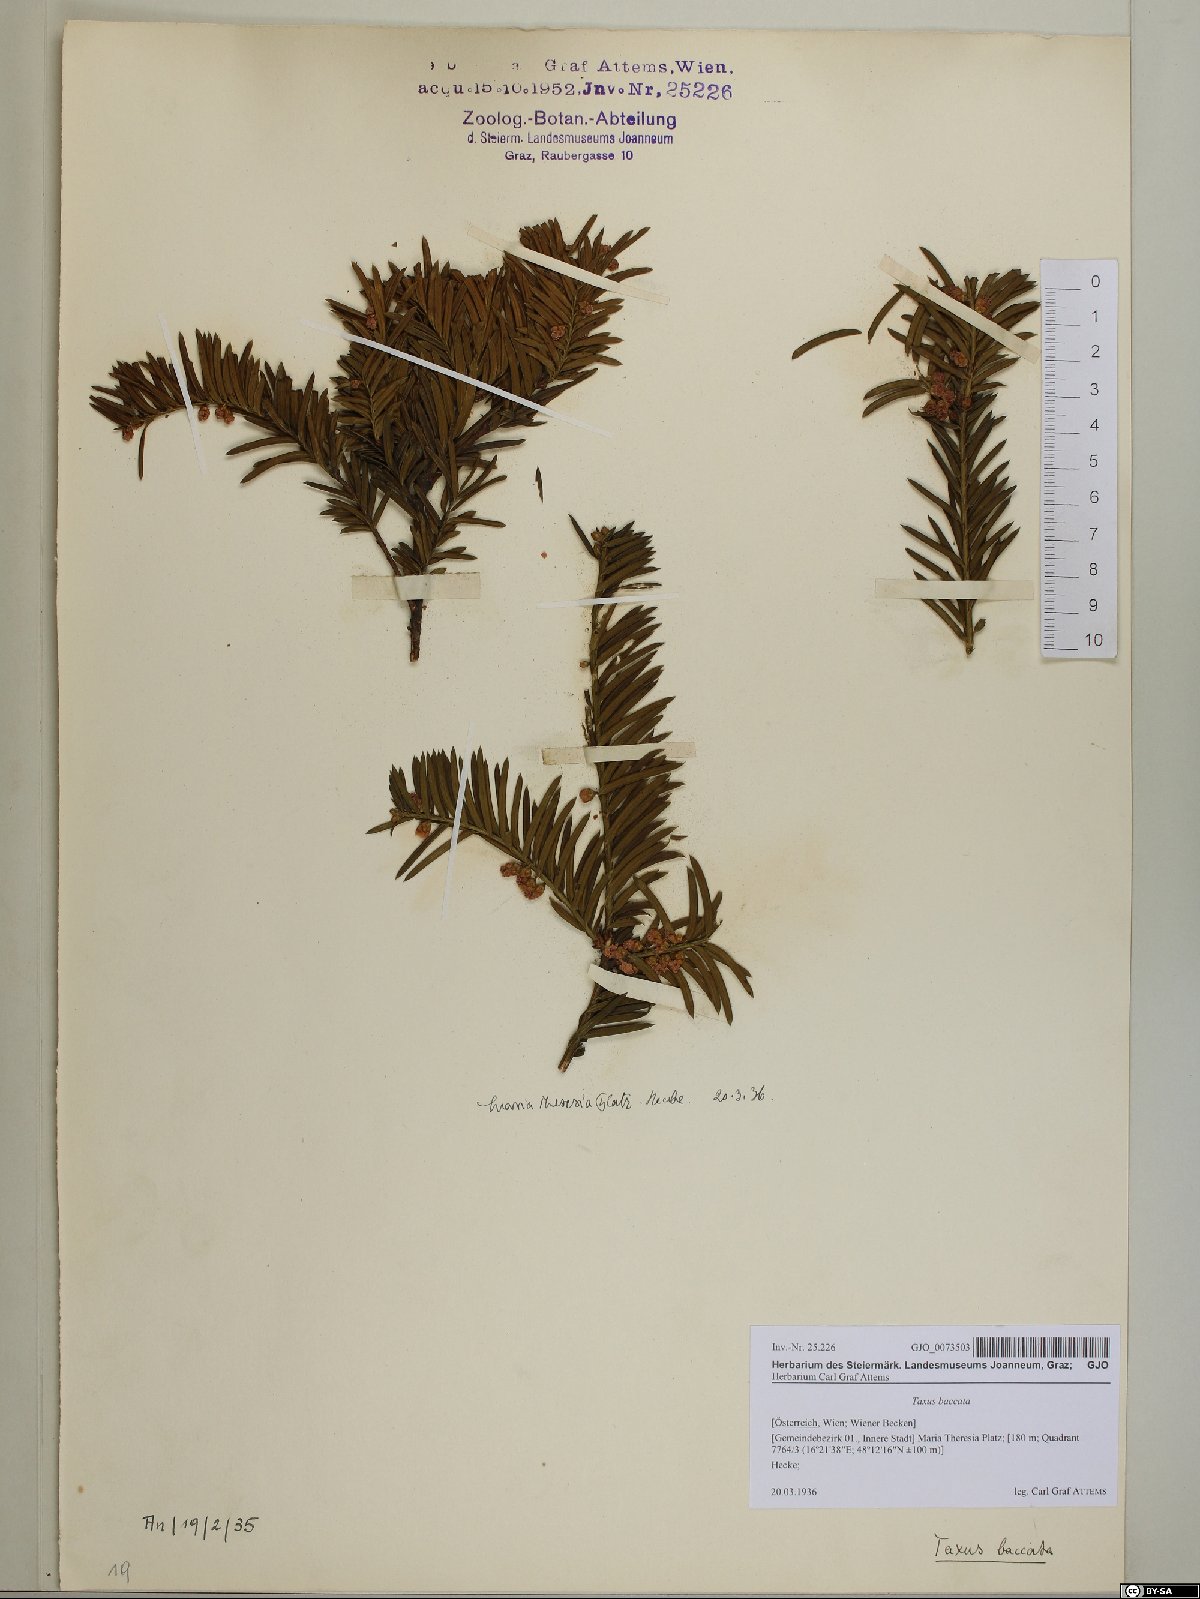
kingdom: Plantae
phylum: Tracheophyta
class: Pinopsida
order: Pinales
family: Taxaceae
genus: Taxus
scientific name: Taxus baccata
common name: Yew
